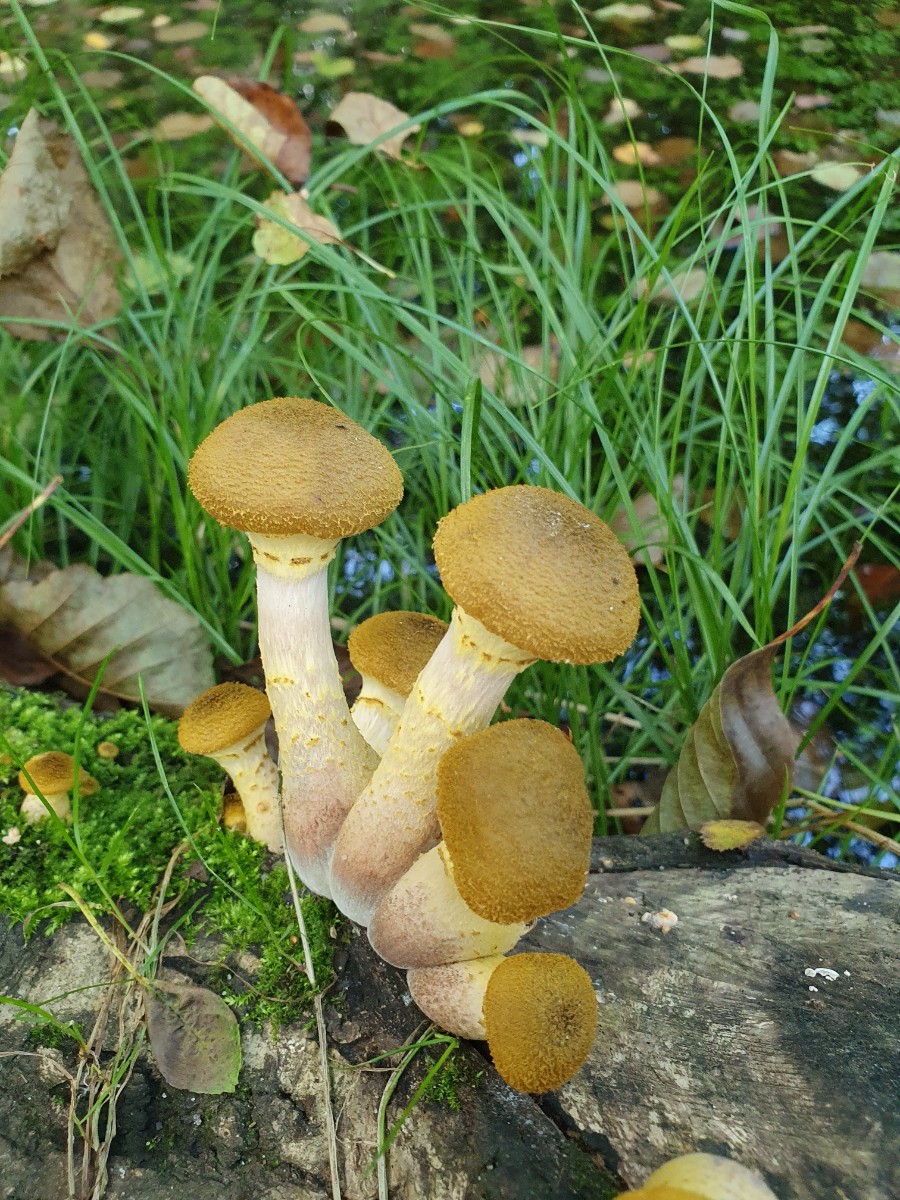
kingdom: Fungi
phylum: Basidiomycota
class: Agaricomycetes
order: Agaricales
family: Physalacriaceae
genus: Armillaria
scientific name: Armillaria lutea
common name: køllestokket honningsvamp
